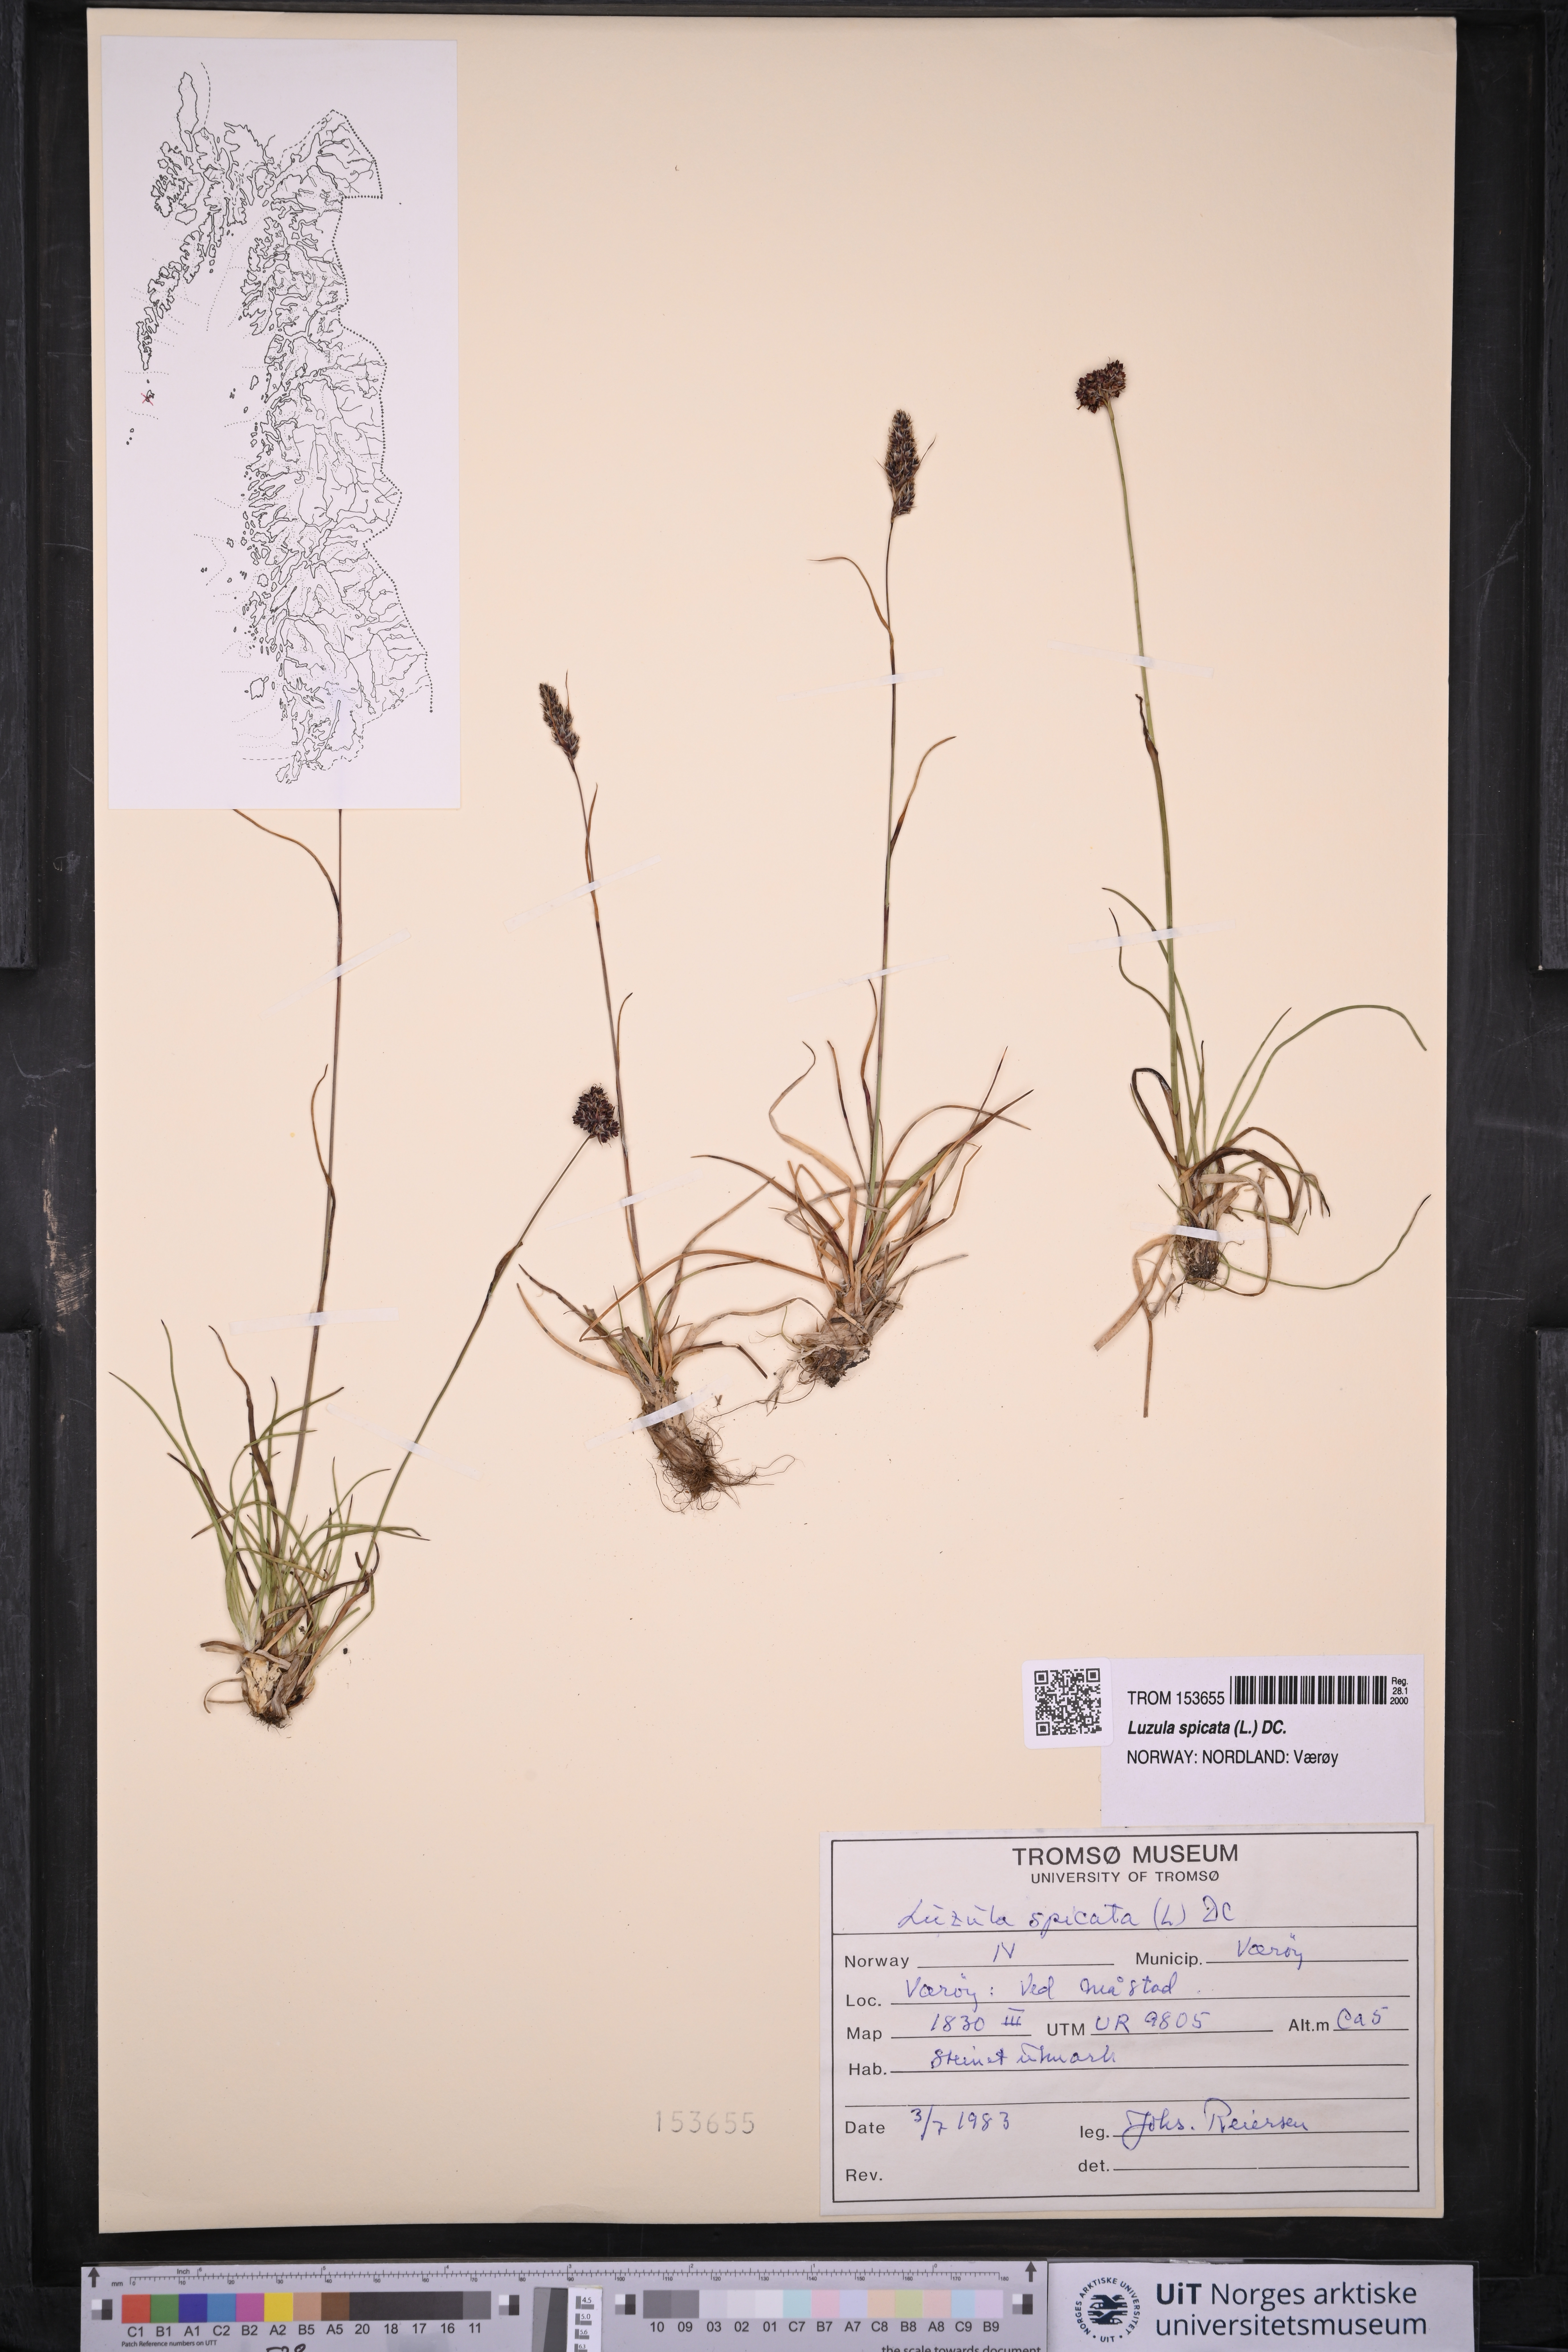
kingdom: Plantae
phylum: Tracheophyta
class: Liliopsida
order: Poales
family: Juncaceae
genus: Luzula
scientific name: Luzula spicata
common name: Spiked wood-rush
